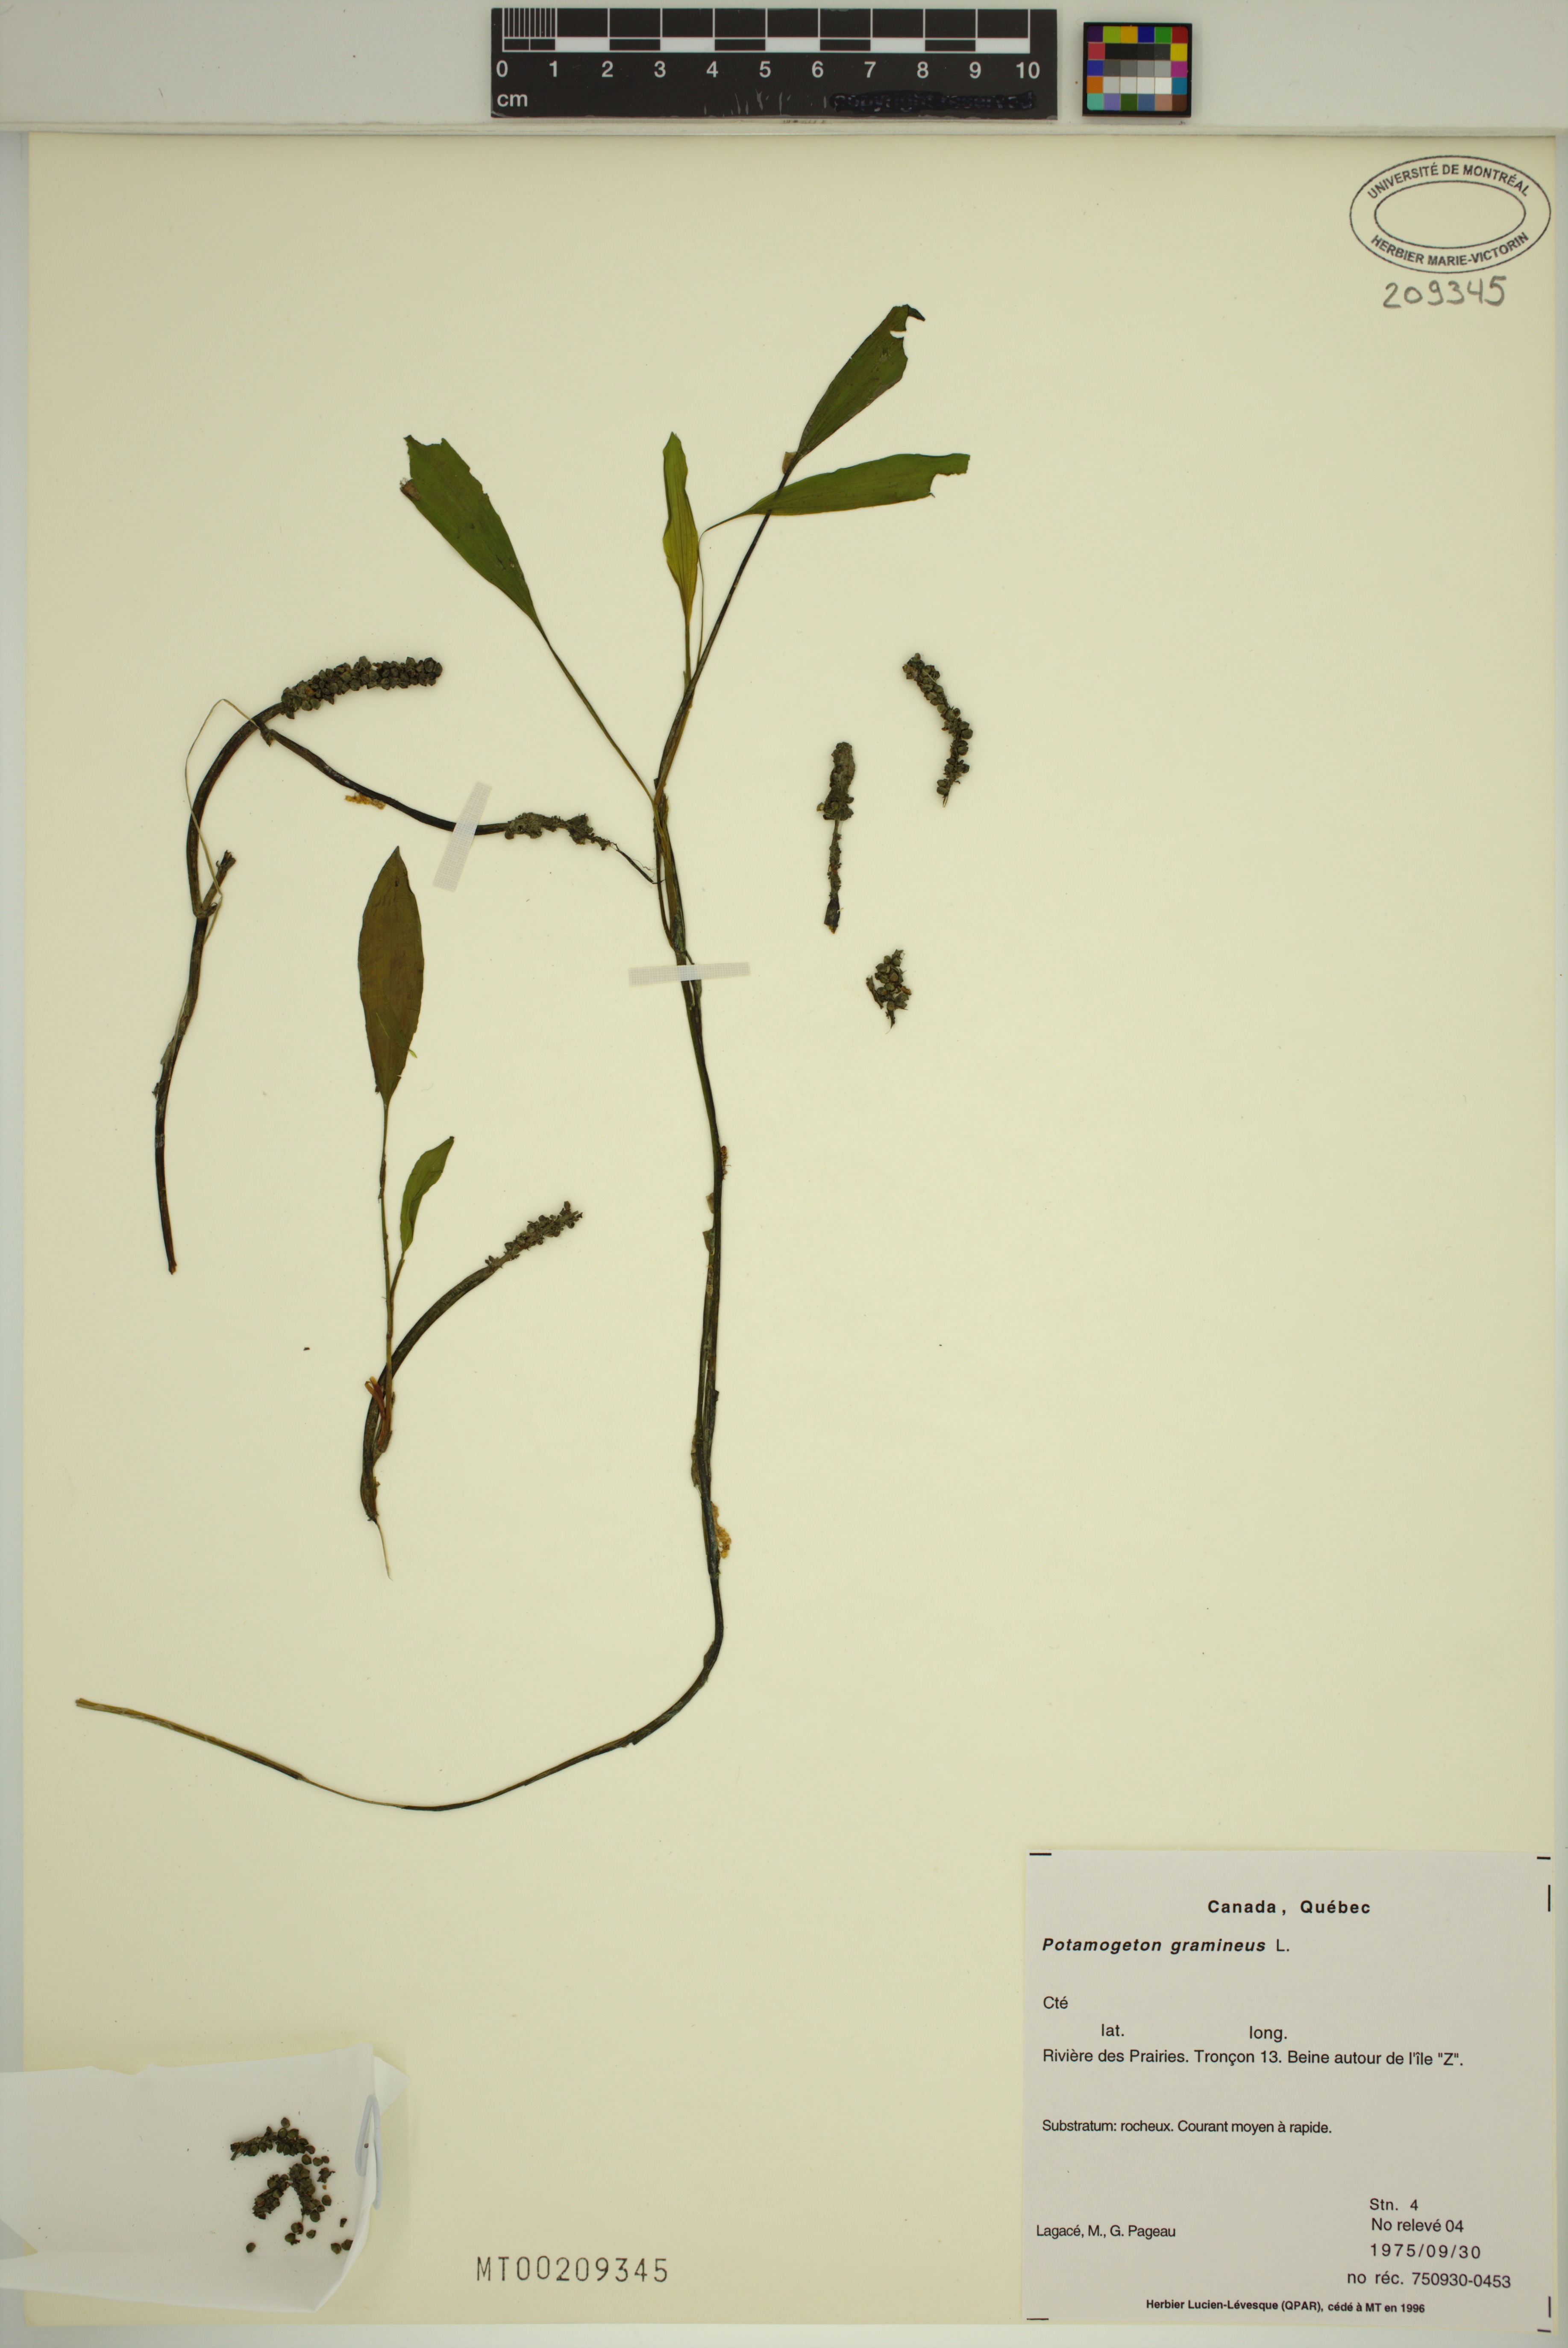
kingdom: Plantae
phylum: Tracheophyta
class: Liliopsida
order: Alismatales
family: Potamogetonaceae
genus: Potamogeton
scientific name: Potamogeton gramineus
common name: Various-leaved pondweed
